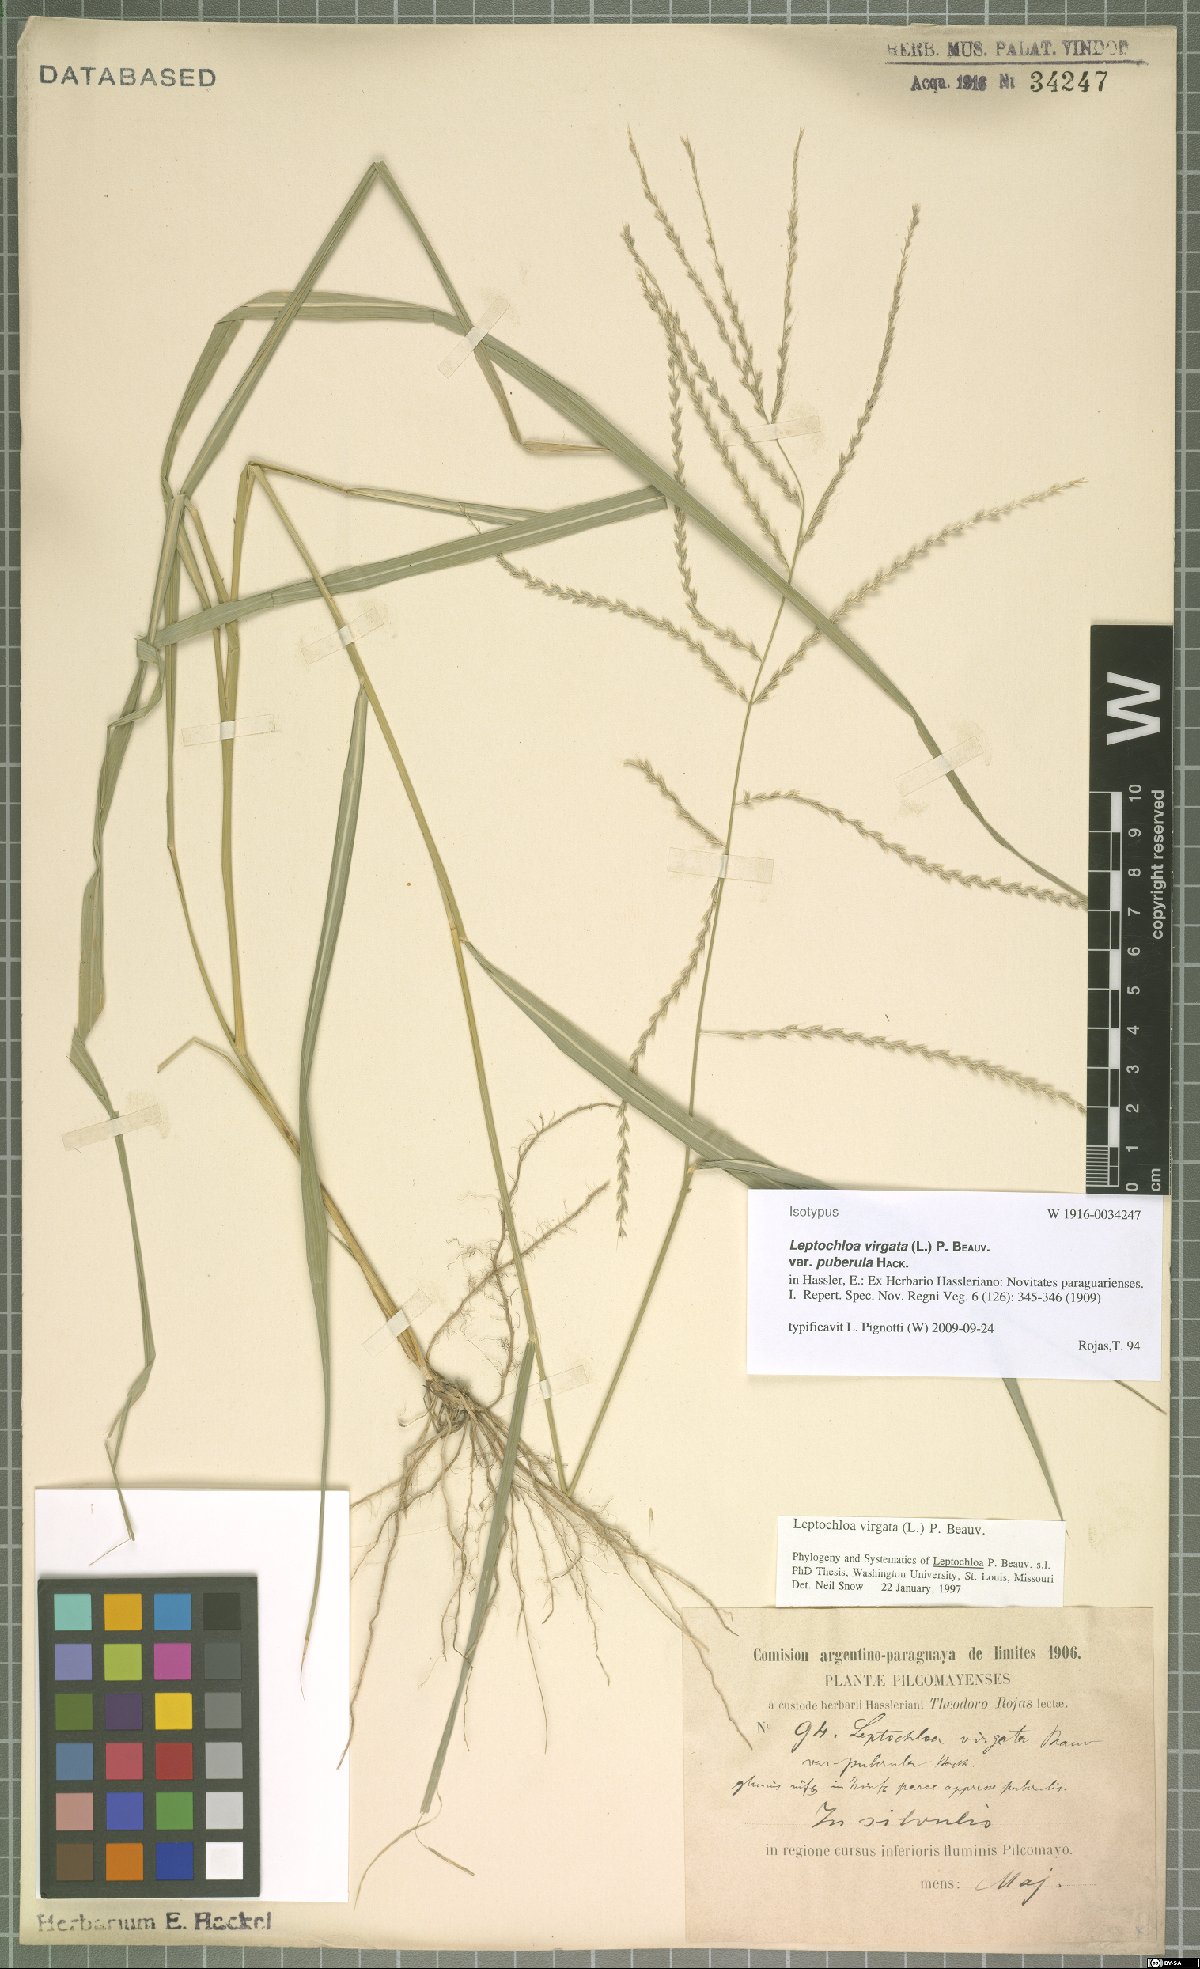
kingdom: Plantae
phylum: Tracheophyta
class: Liliopsida
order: Poales
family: Poaceae
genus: Leptochloa
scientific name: Leptochloa virgata
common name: Tropical sprangletop
